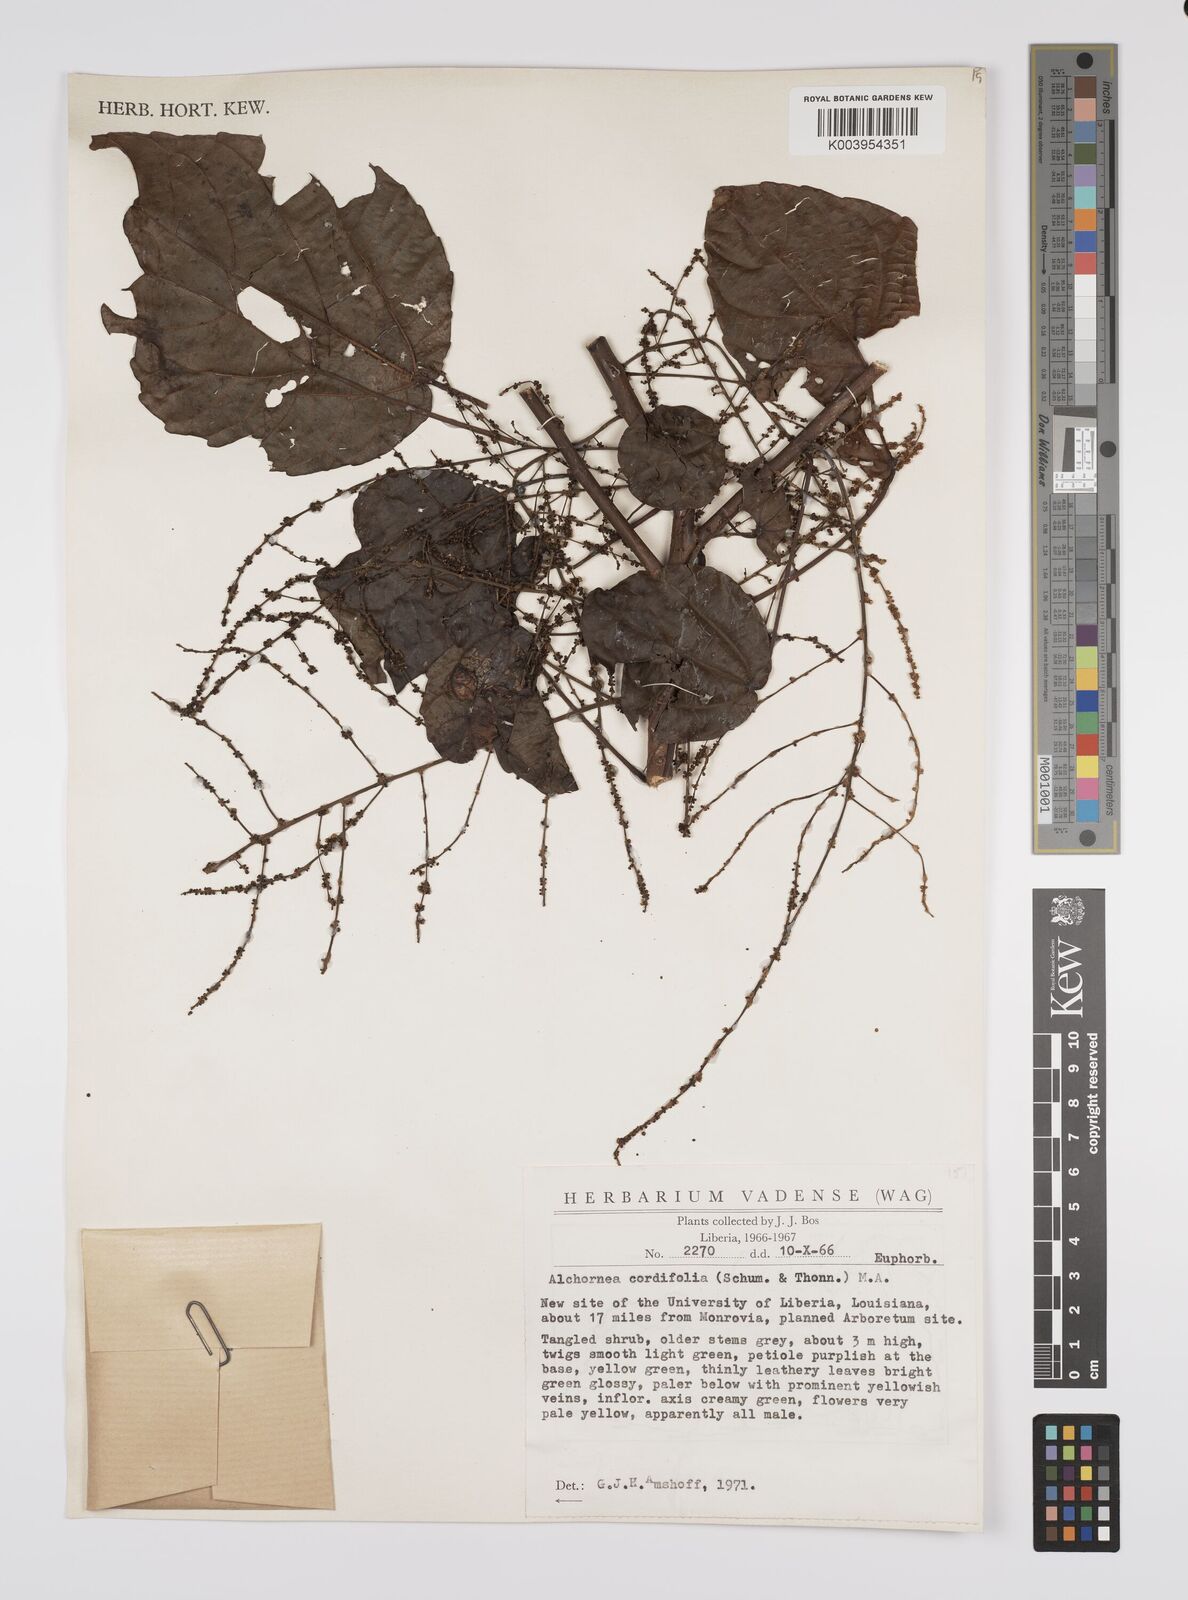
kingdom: Plantae
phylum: Tracheophyta
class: Magnoliopsida
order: Malpighiales
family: Euphorbiaceae
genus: Alchornea
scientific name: Alchornea cordifolia
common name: Christmasbush
